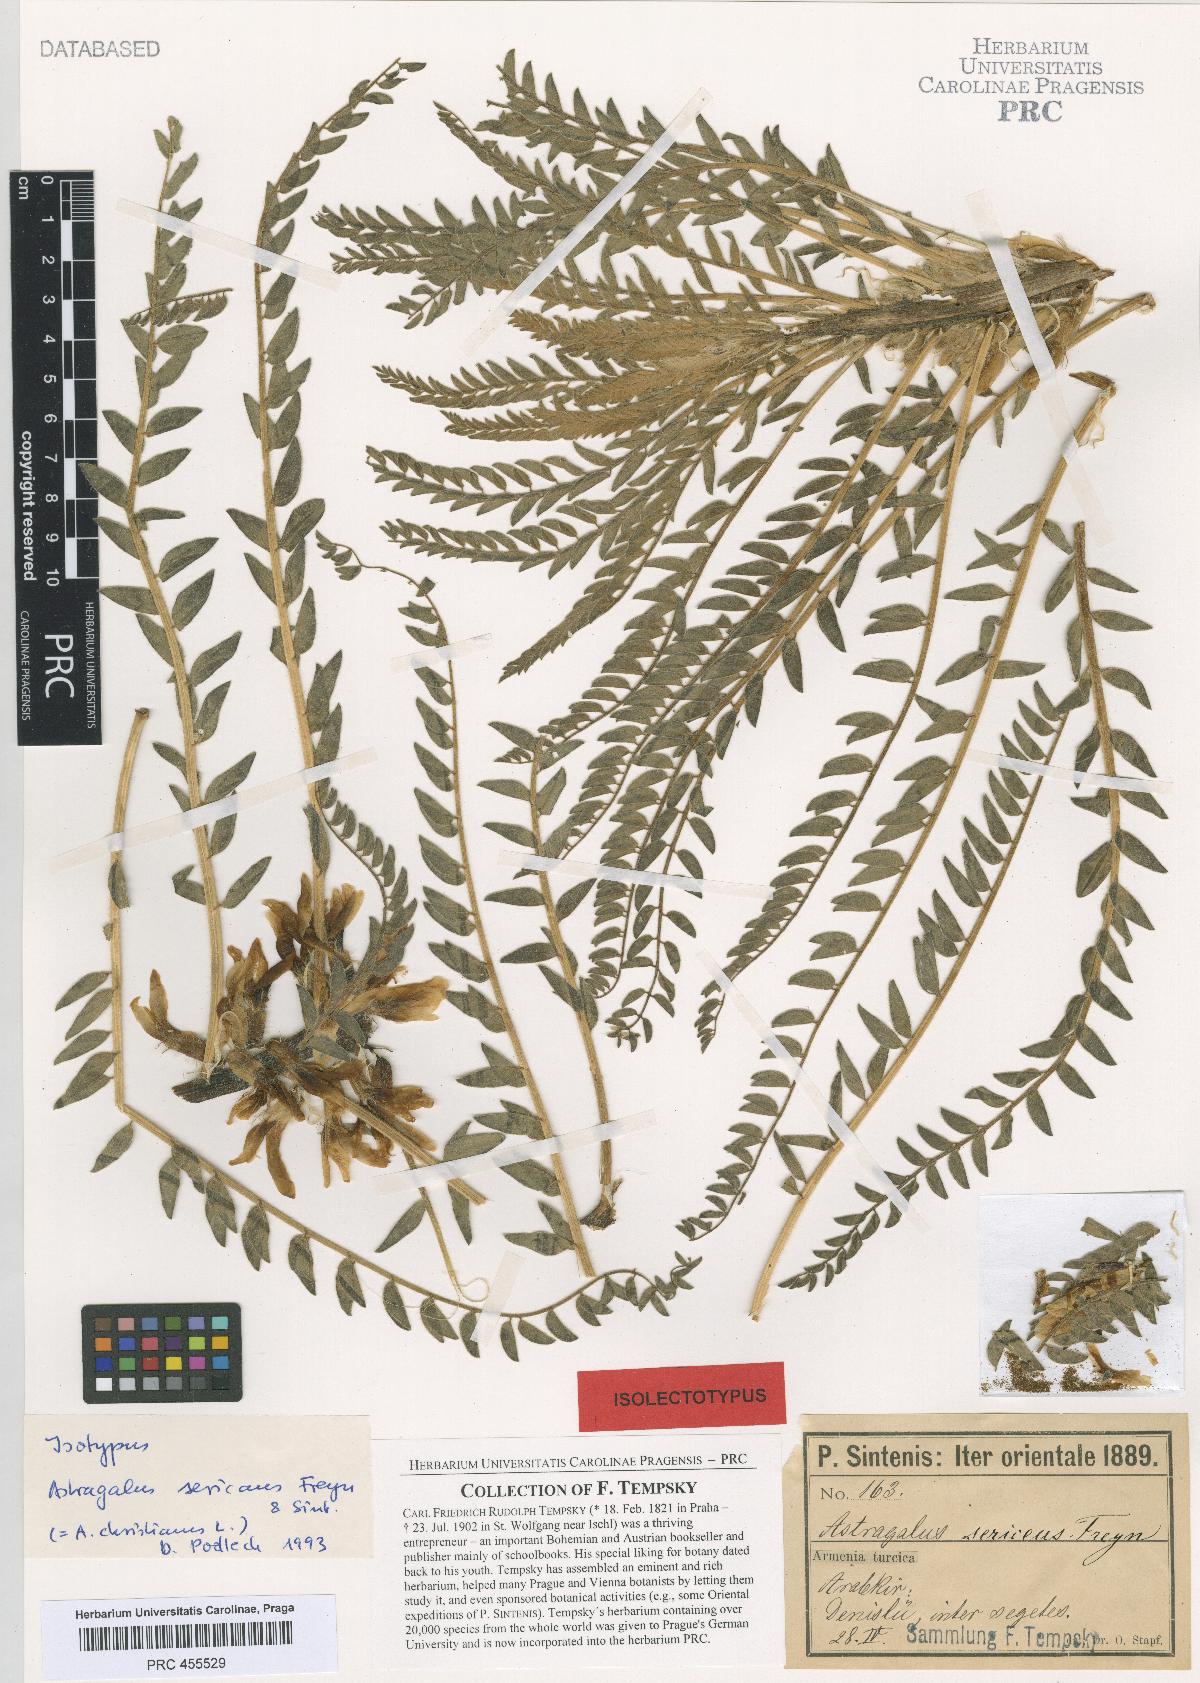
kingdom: Plantae
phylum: Tracheophyta
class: Magnoliopsida
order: Fabales
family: Fabaceae
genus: Astragalus
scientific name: Astragalus christianus
